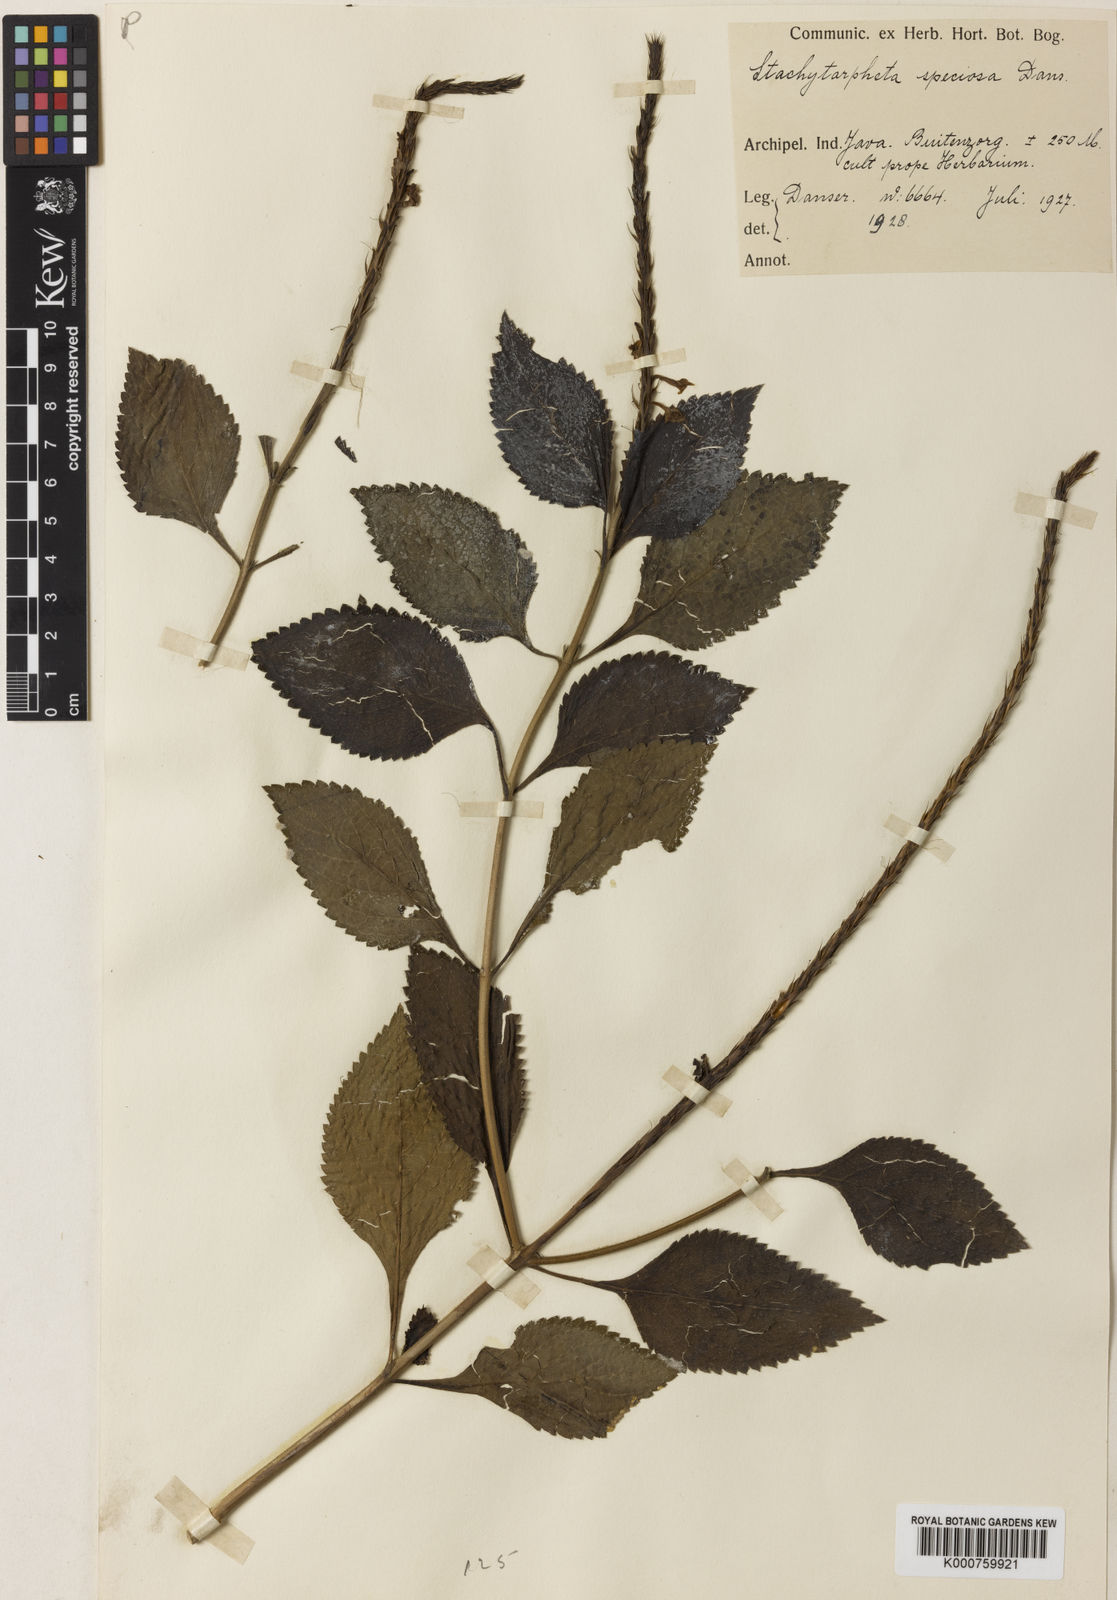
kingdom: Plantae
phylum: Tracheophyta
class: Magnoliopsida
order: Lamiales
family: Verbenaceae
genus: Stachytarpheta
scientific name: Stachytarpheta adulterina
